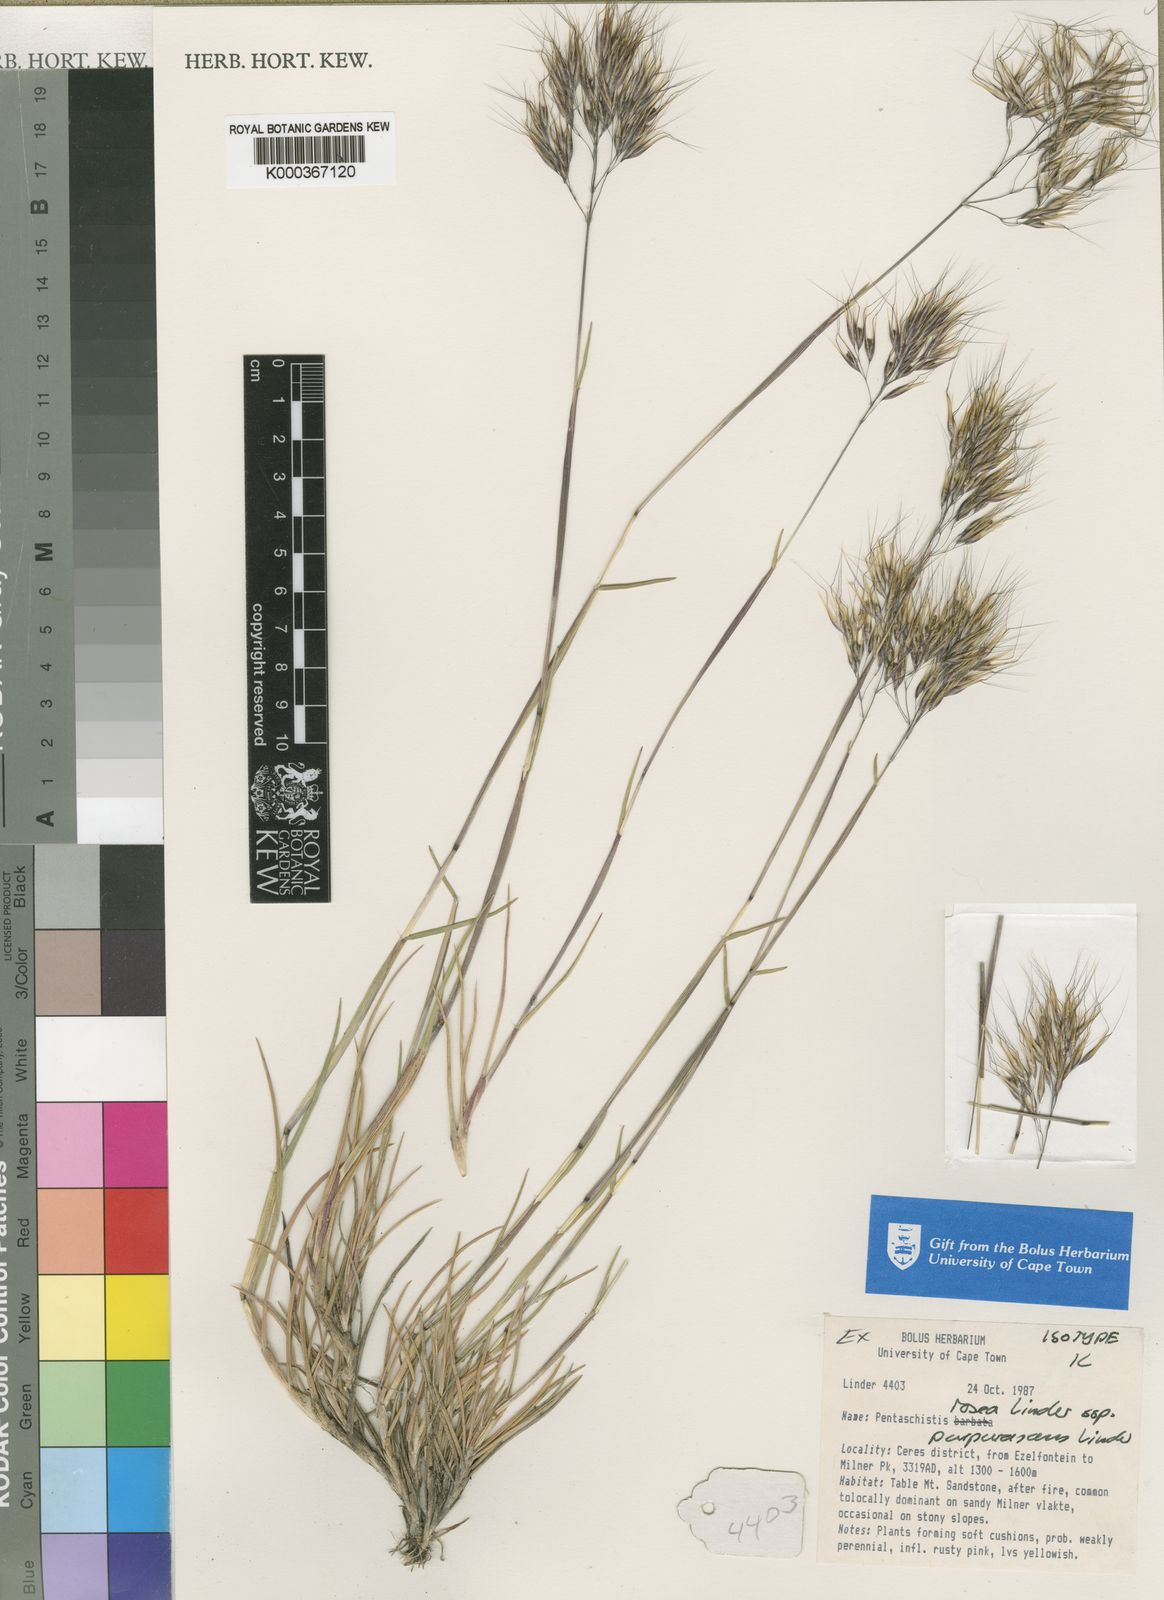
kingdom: Plantae
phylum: Tracheophyta
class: Liliopsida
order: Poales
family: Poaceae
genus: Pentameris
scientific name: Pentameris rosea
